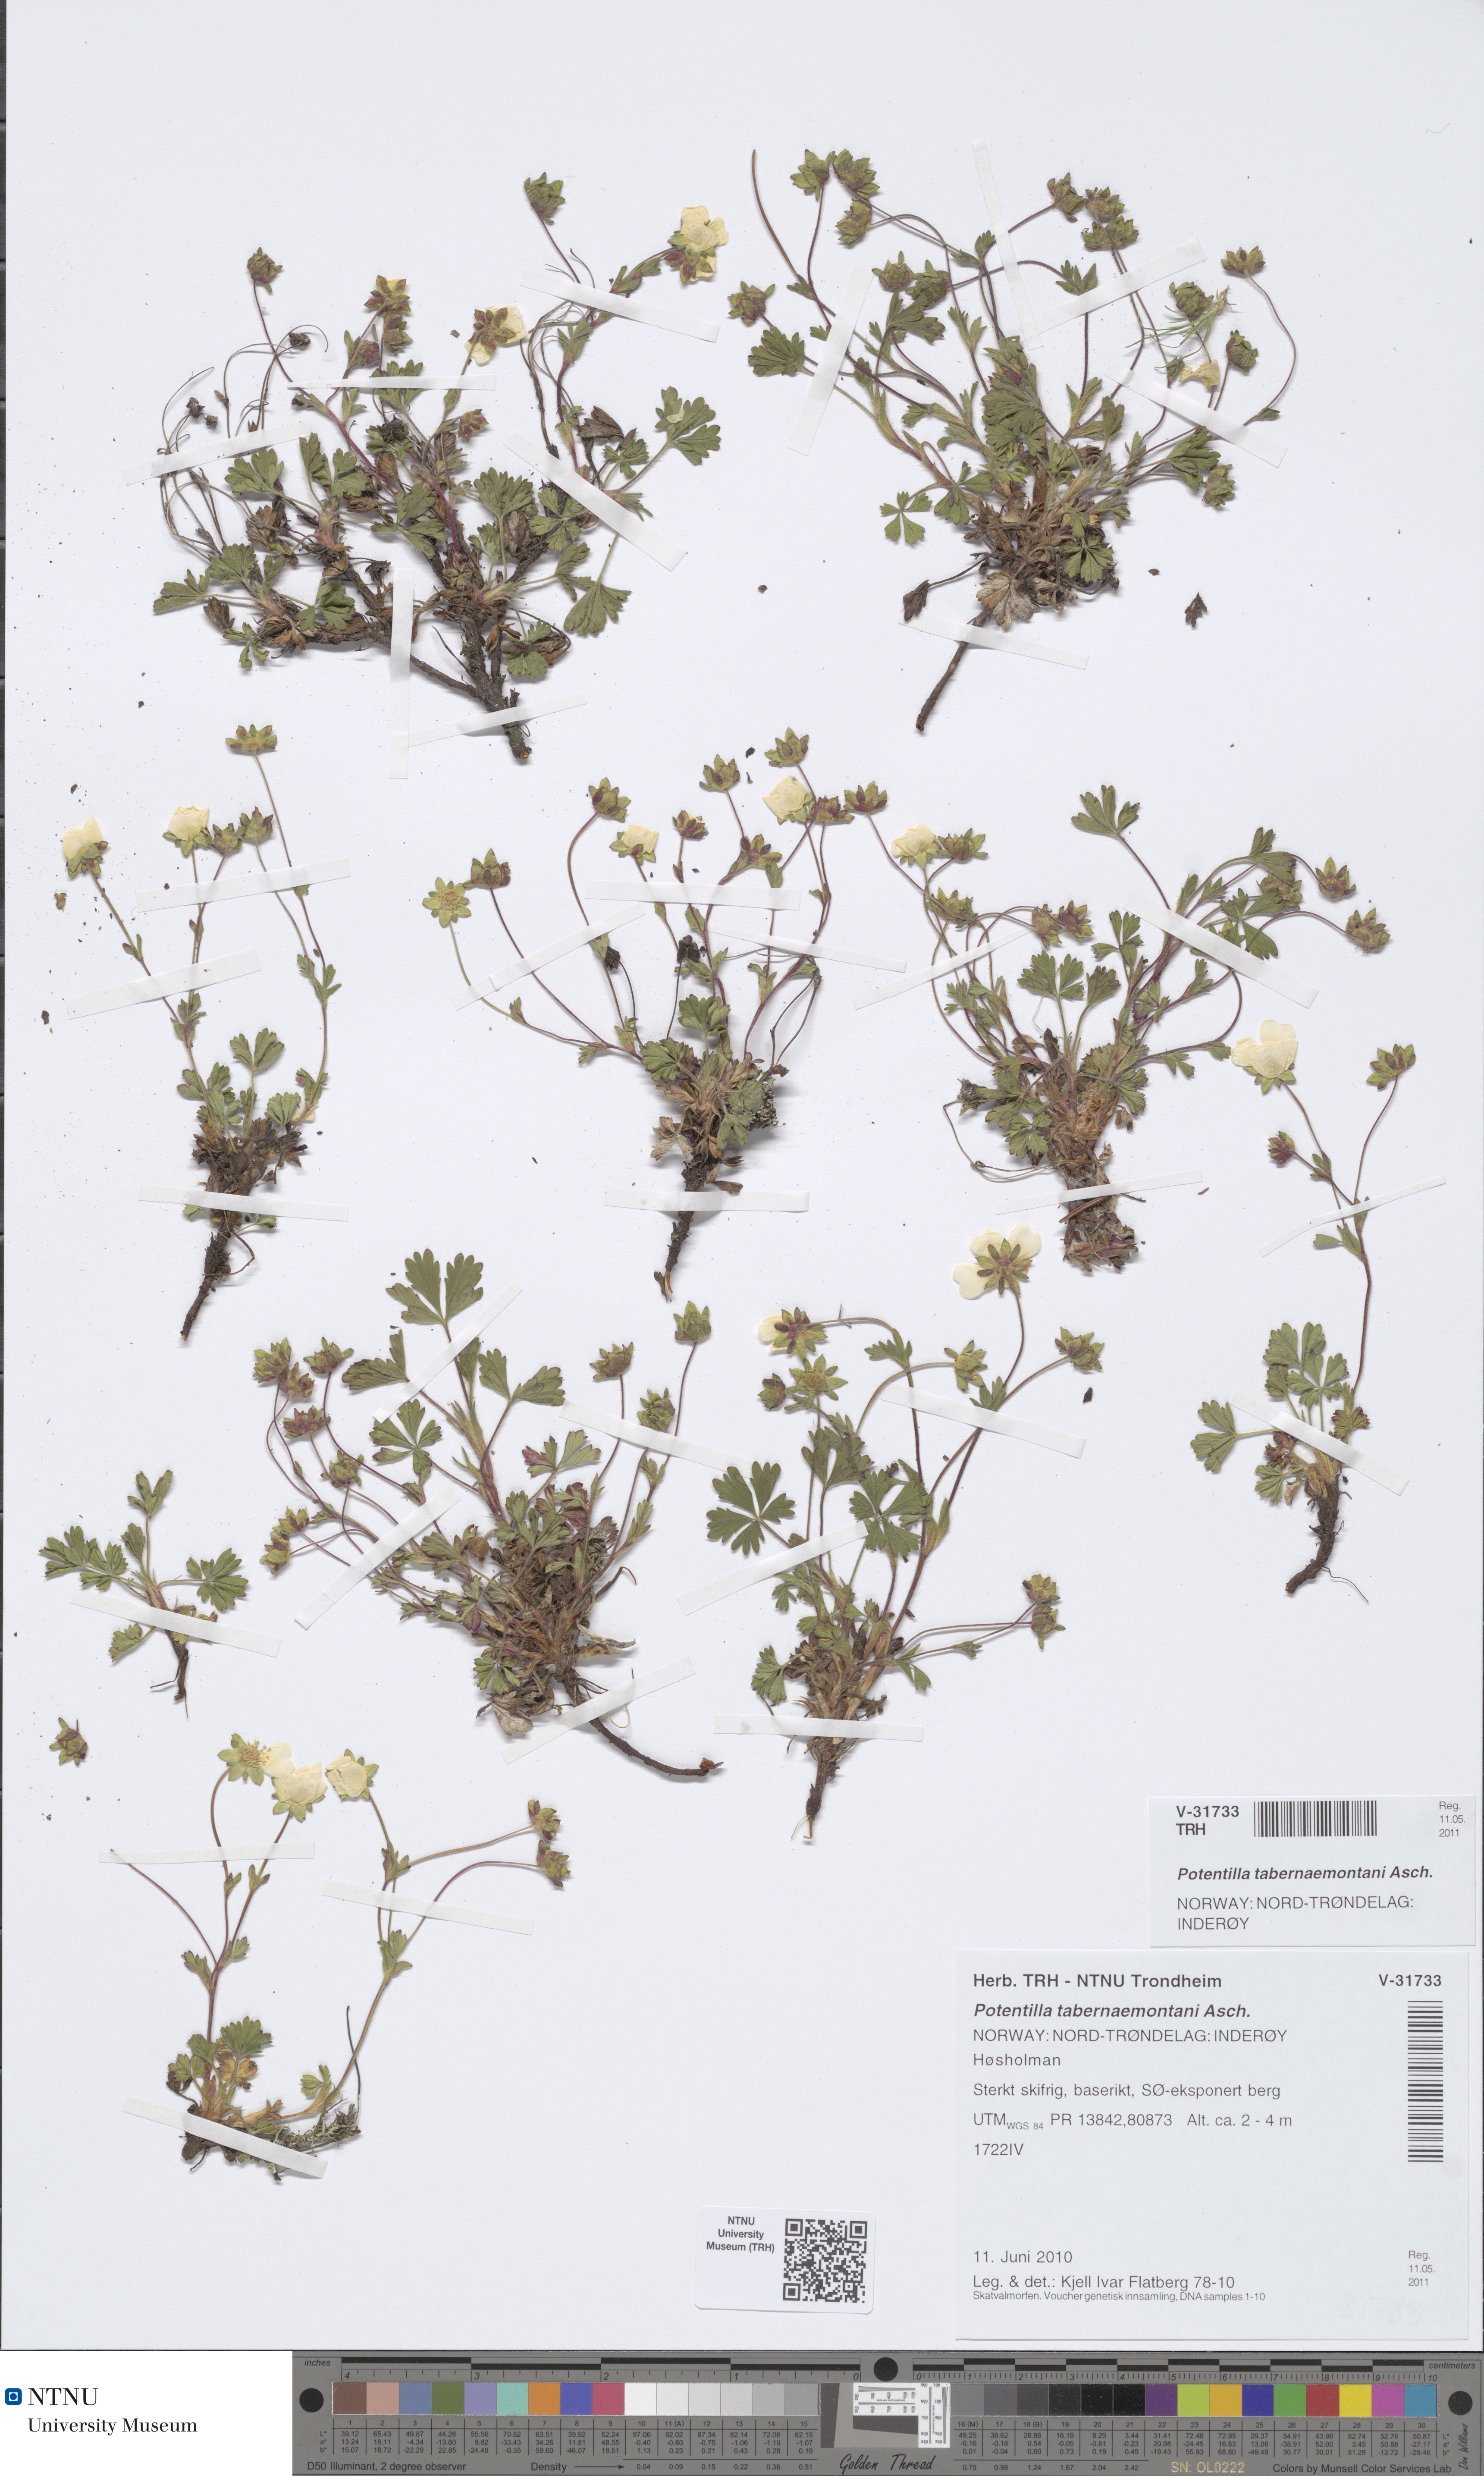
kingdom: Plantae
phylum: Tracheophyta
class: Magnoliopsida
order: Rosales
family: Rosaceae
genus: Potentilla
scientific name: Potentilla verna
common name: Spring cinquefoil
